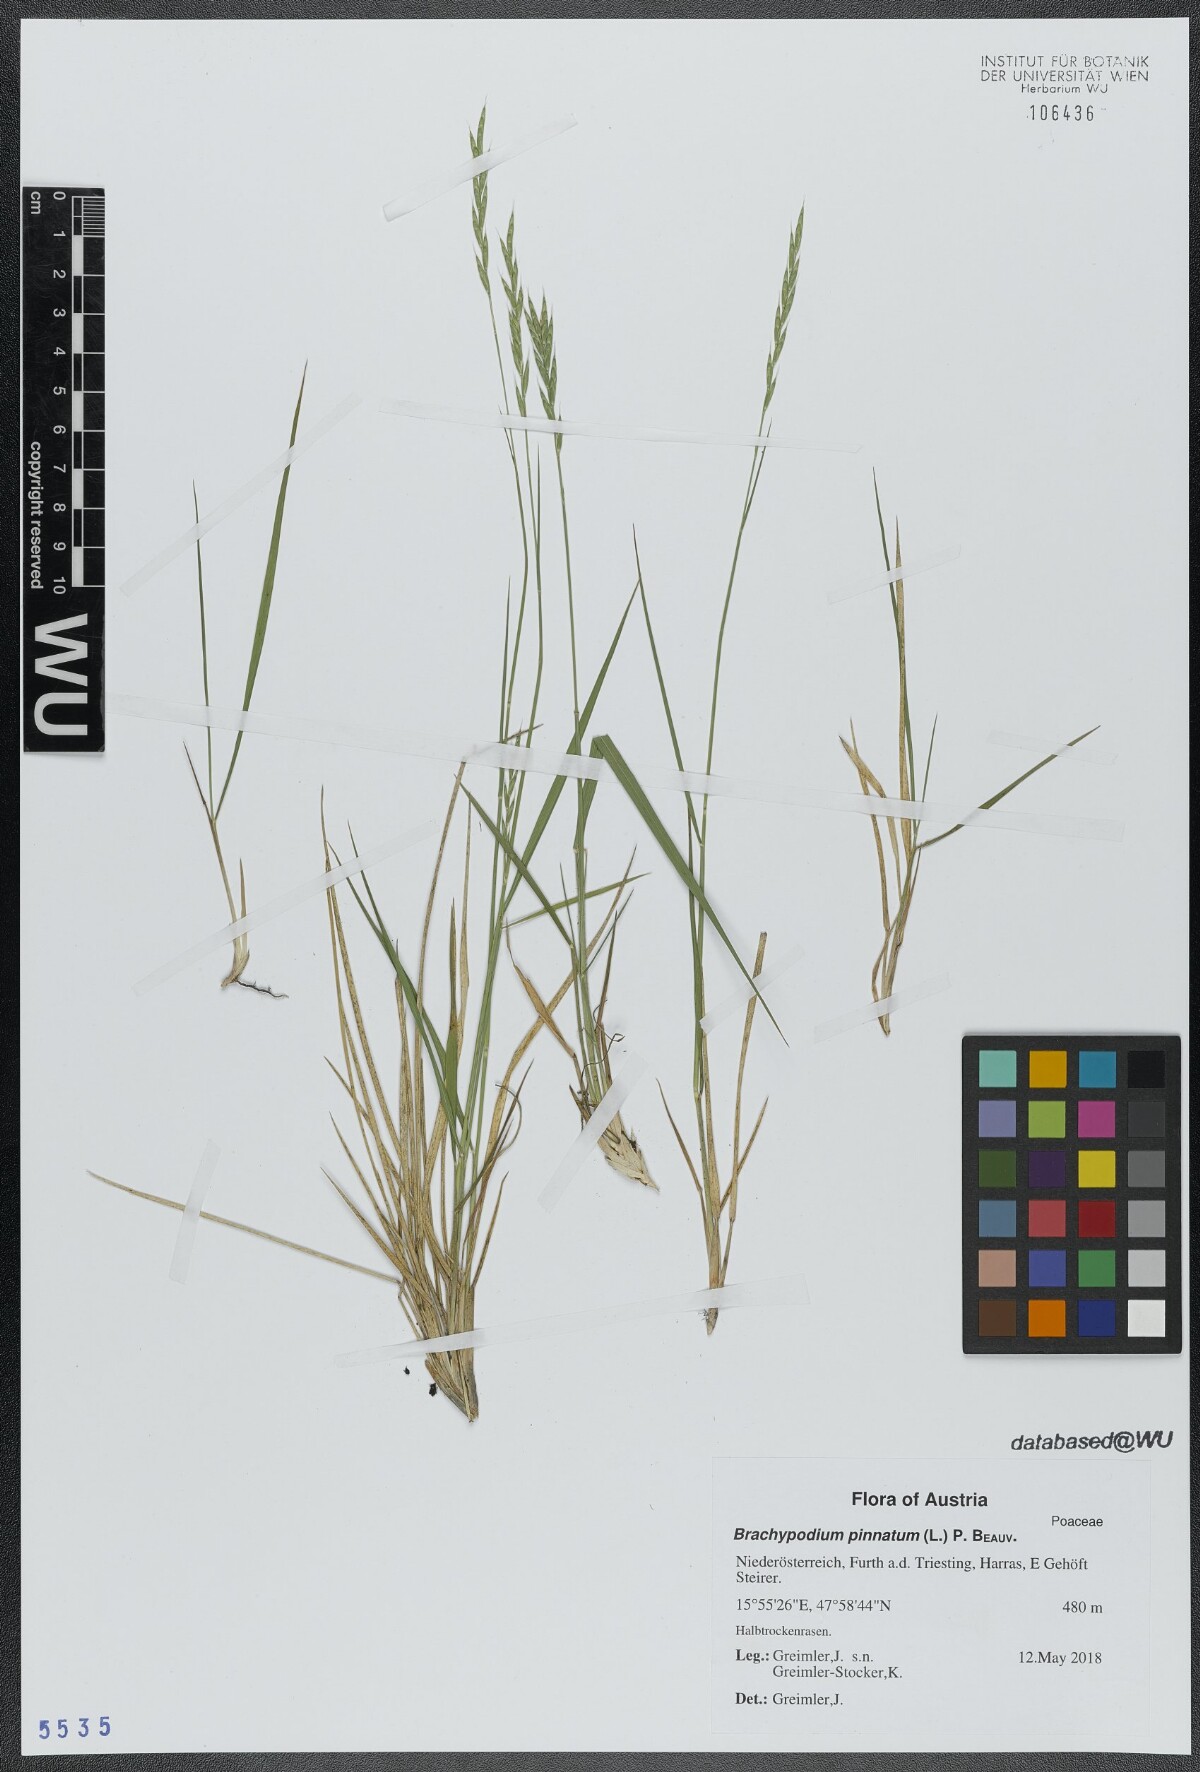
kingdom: Plantae
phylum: Tracheophyta
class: Liliopsida
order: Poales
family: Poaceae
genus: Brachypodium
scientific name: Brachypodium pinnatum
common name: Tor grass
